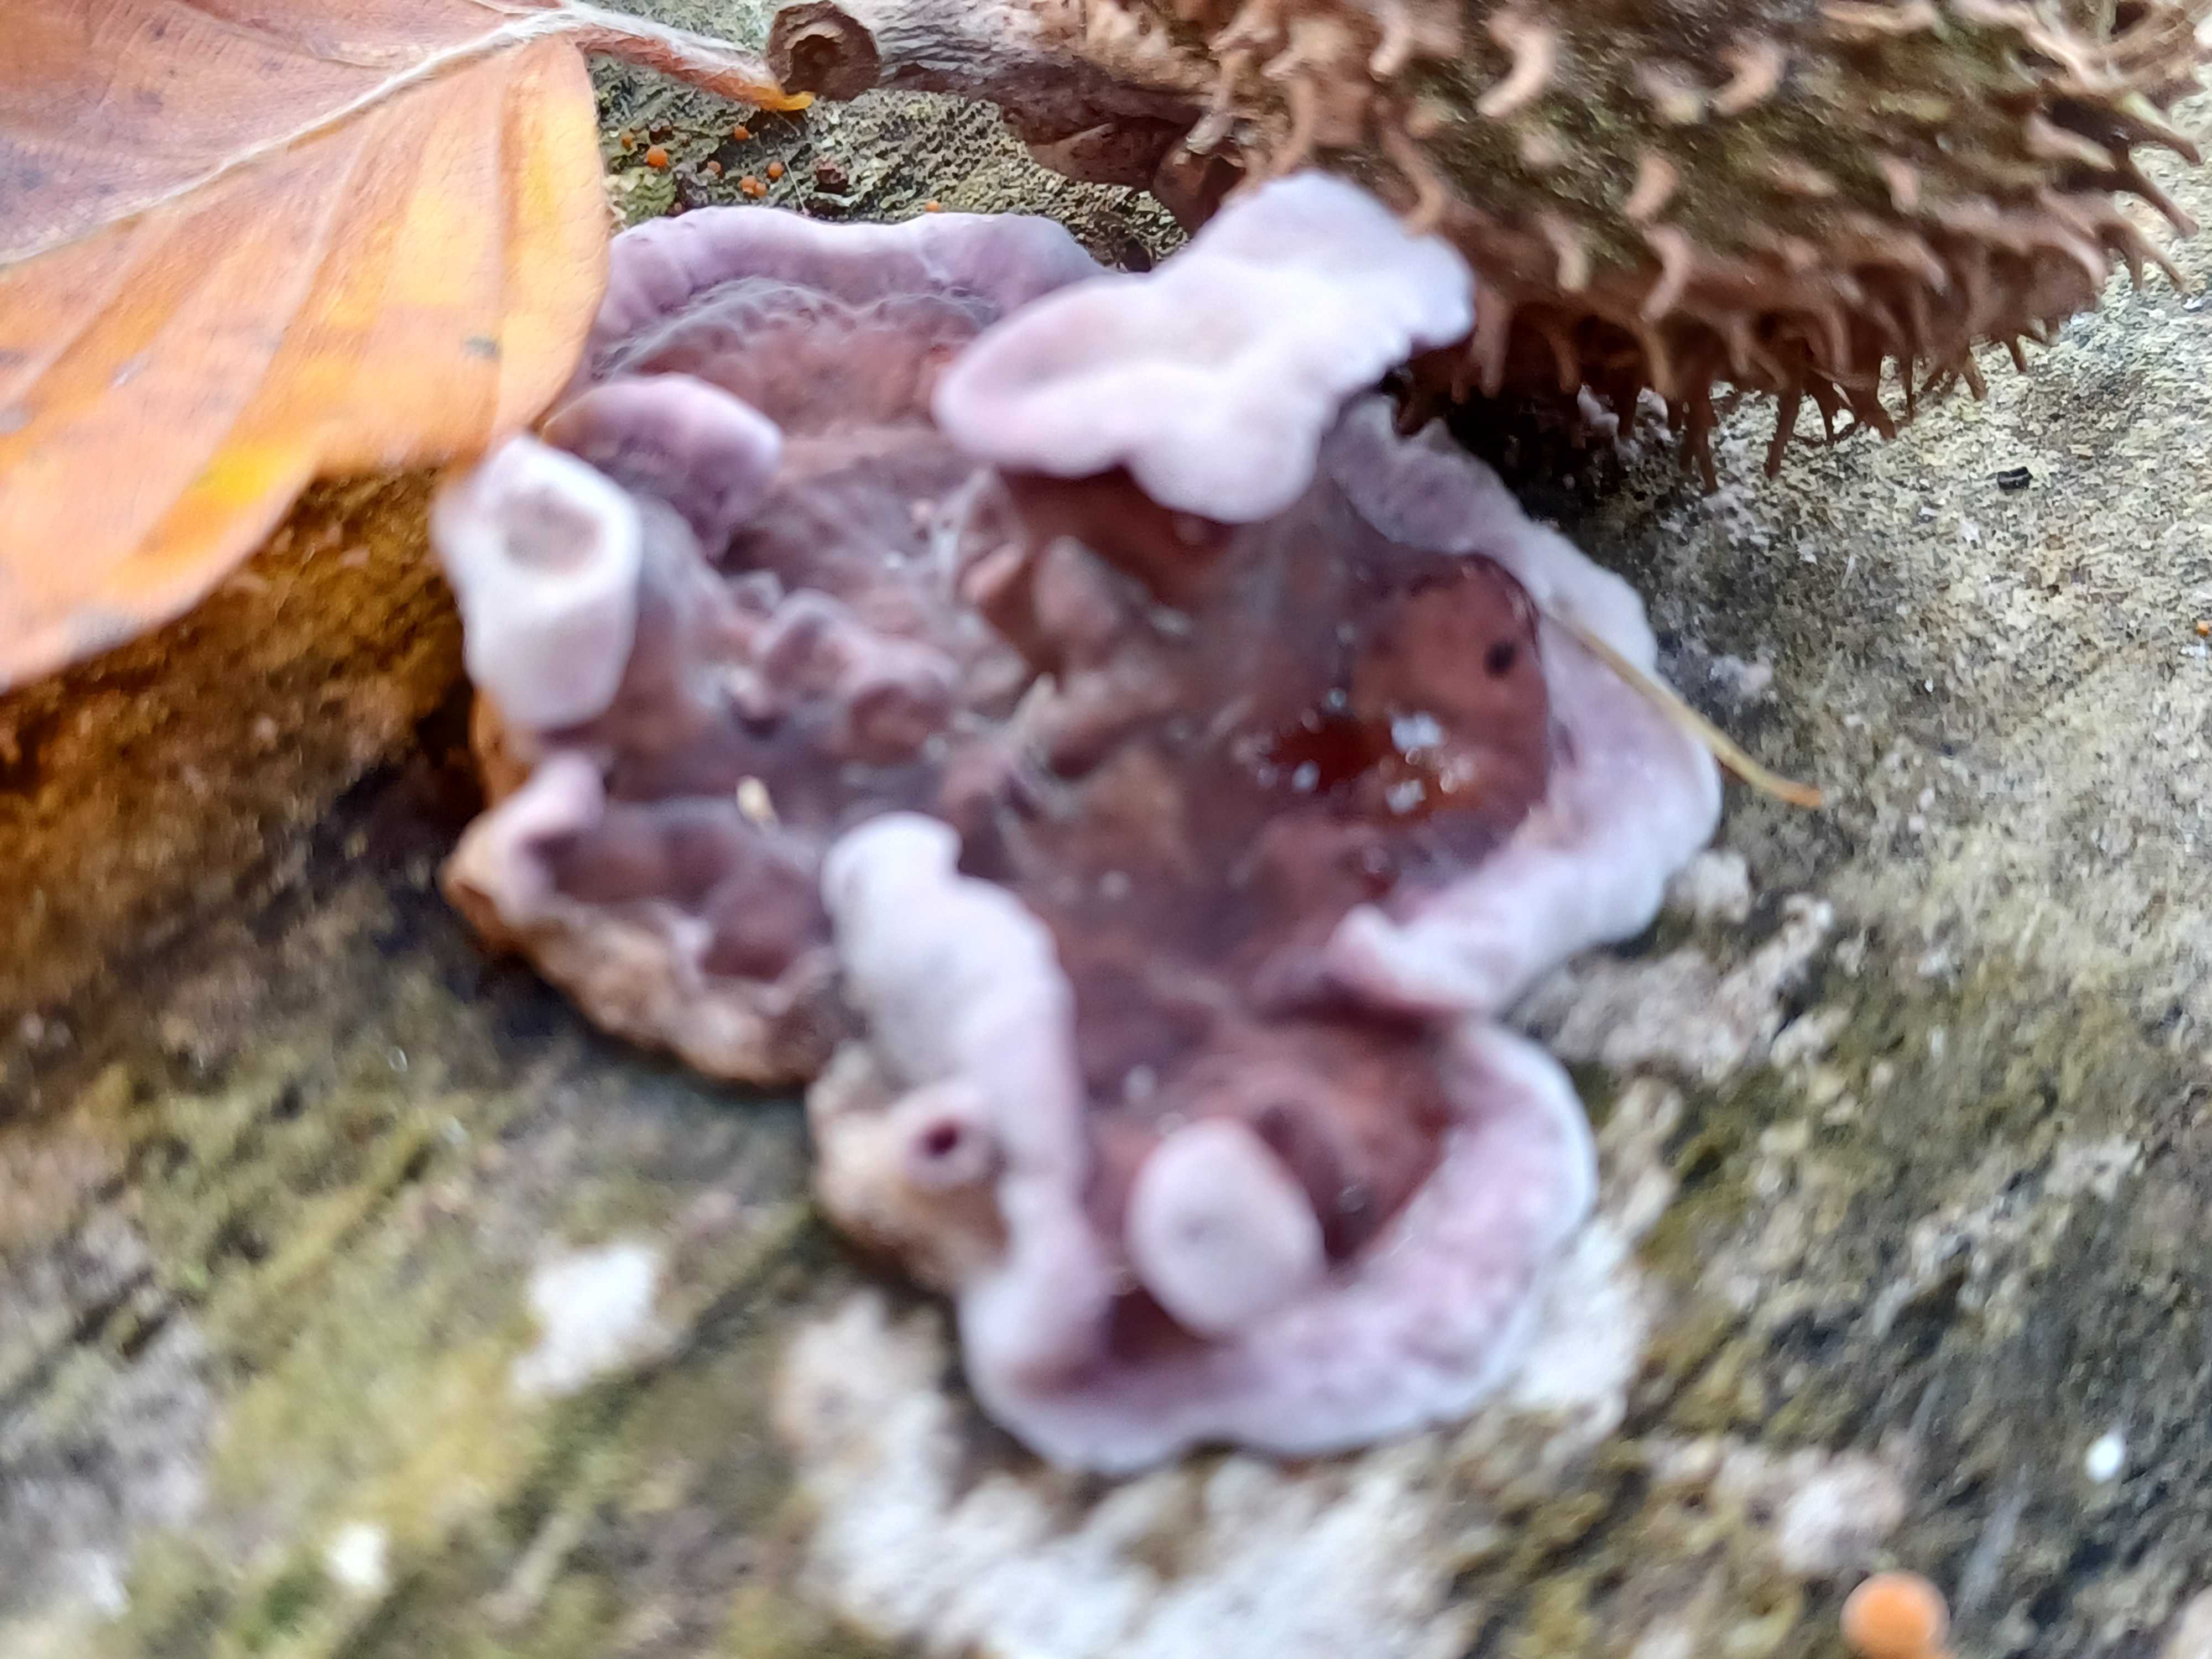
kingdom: Fungi
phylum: Basidiomycota
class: Agaricomycetes
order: Agaricales
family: Cyphellaceae
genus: Chondrostereum
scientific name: Chondrostereum purpureum
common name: purpurlædersvamp
